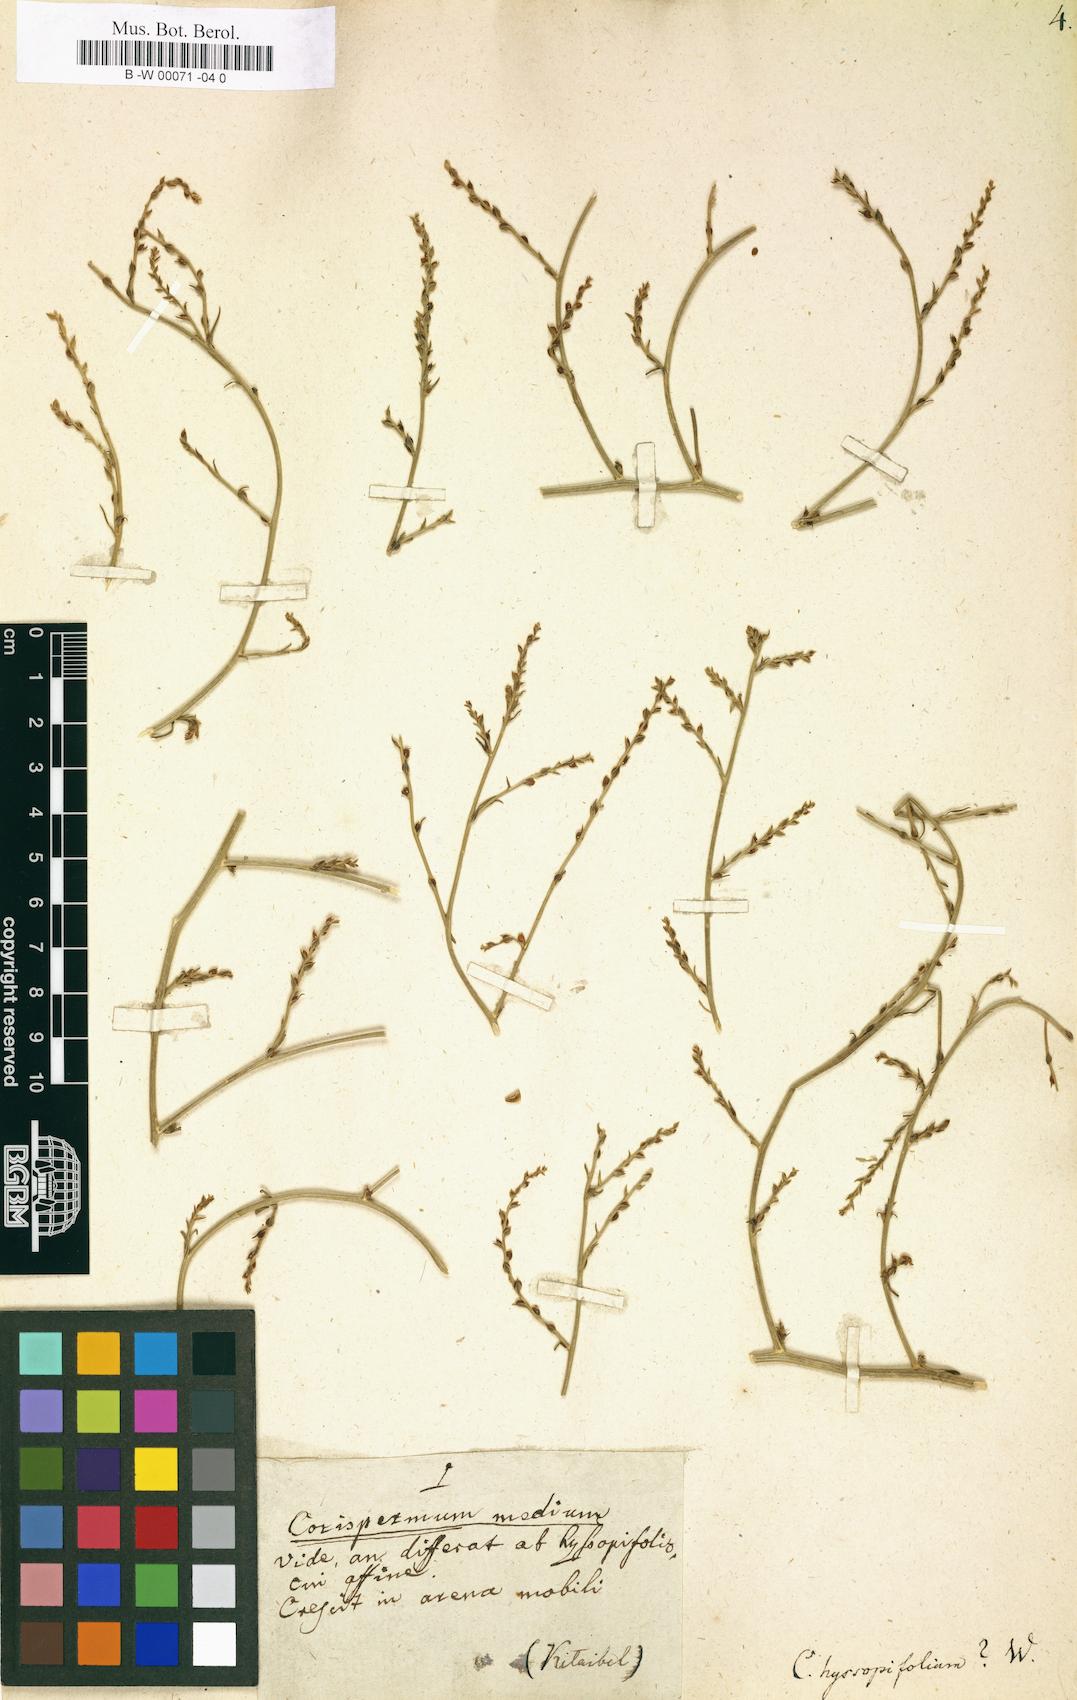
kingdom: Plantae
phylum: Tracheophyta
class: Magnoliopsida
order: Caryophyllales
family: Amaranthaceae
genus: Corispermum
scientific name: Corispermum hyssopifolium
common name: Bugseed
